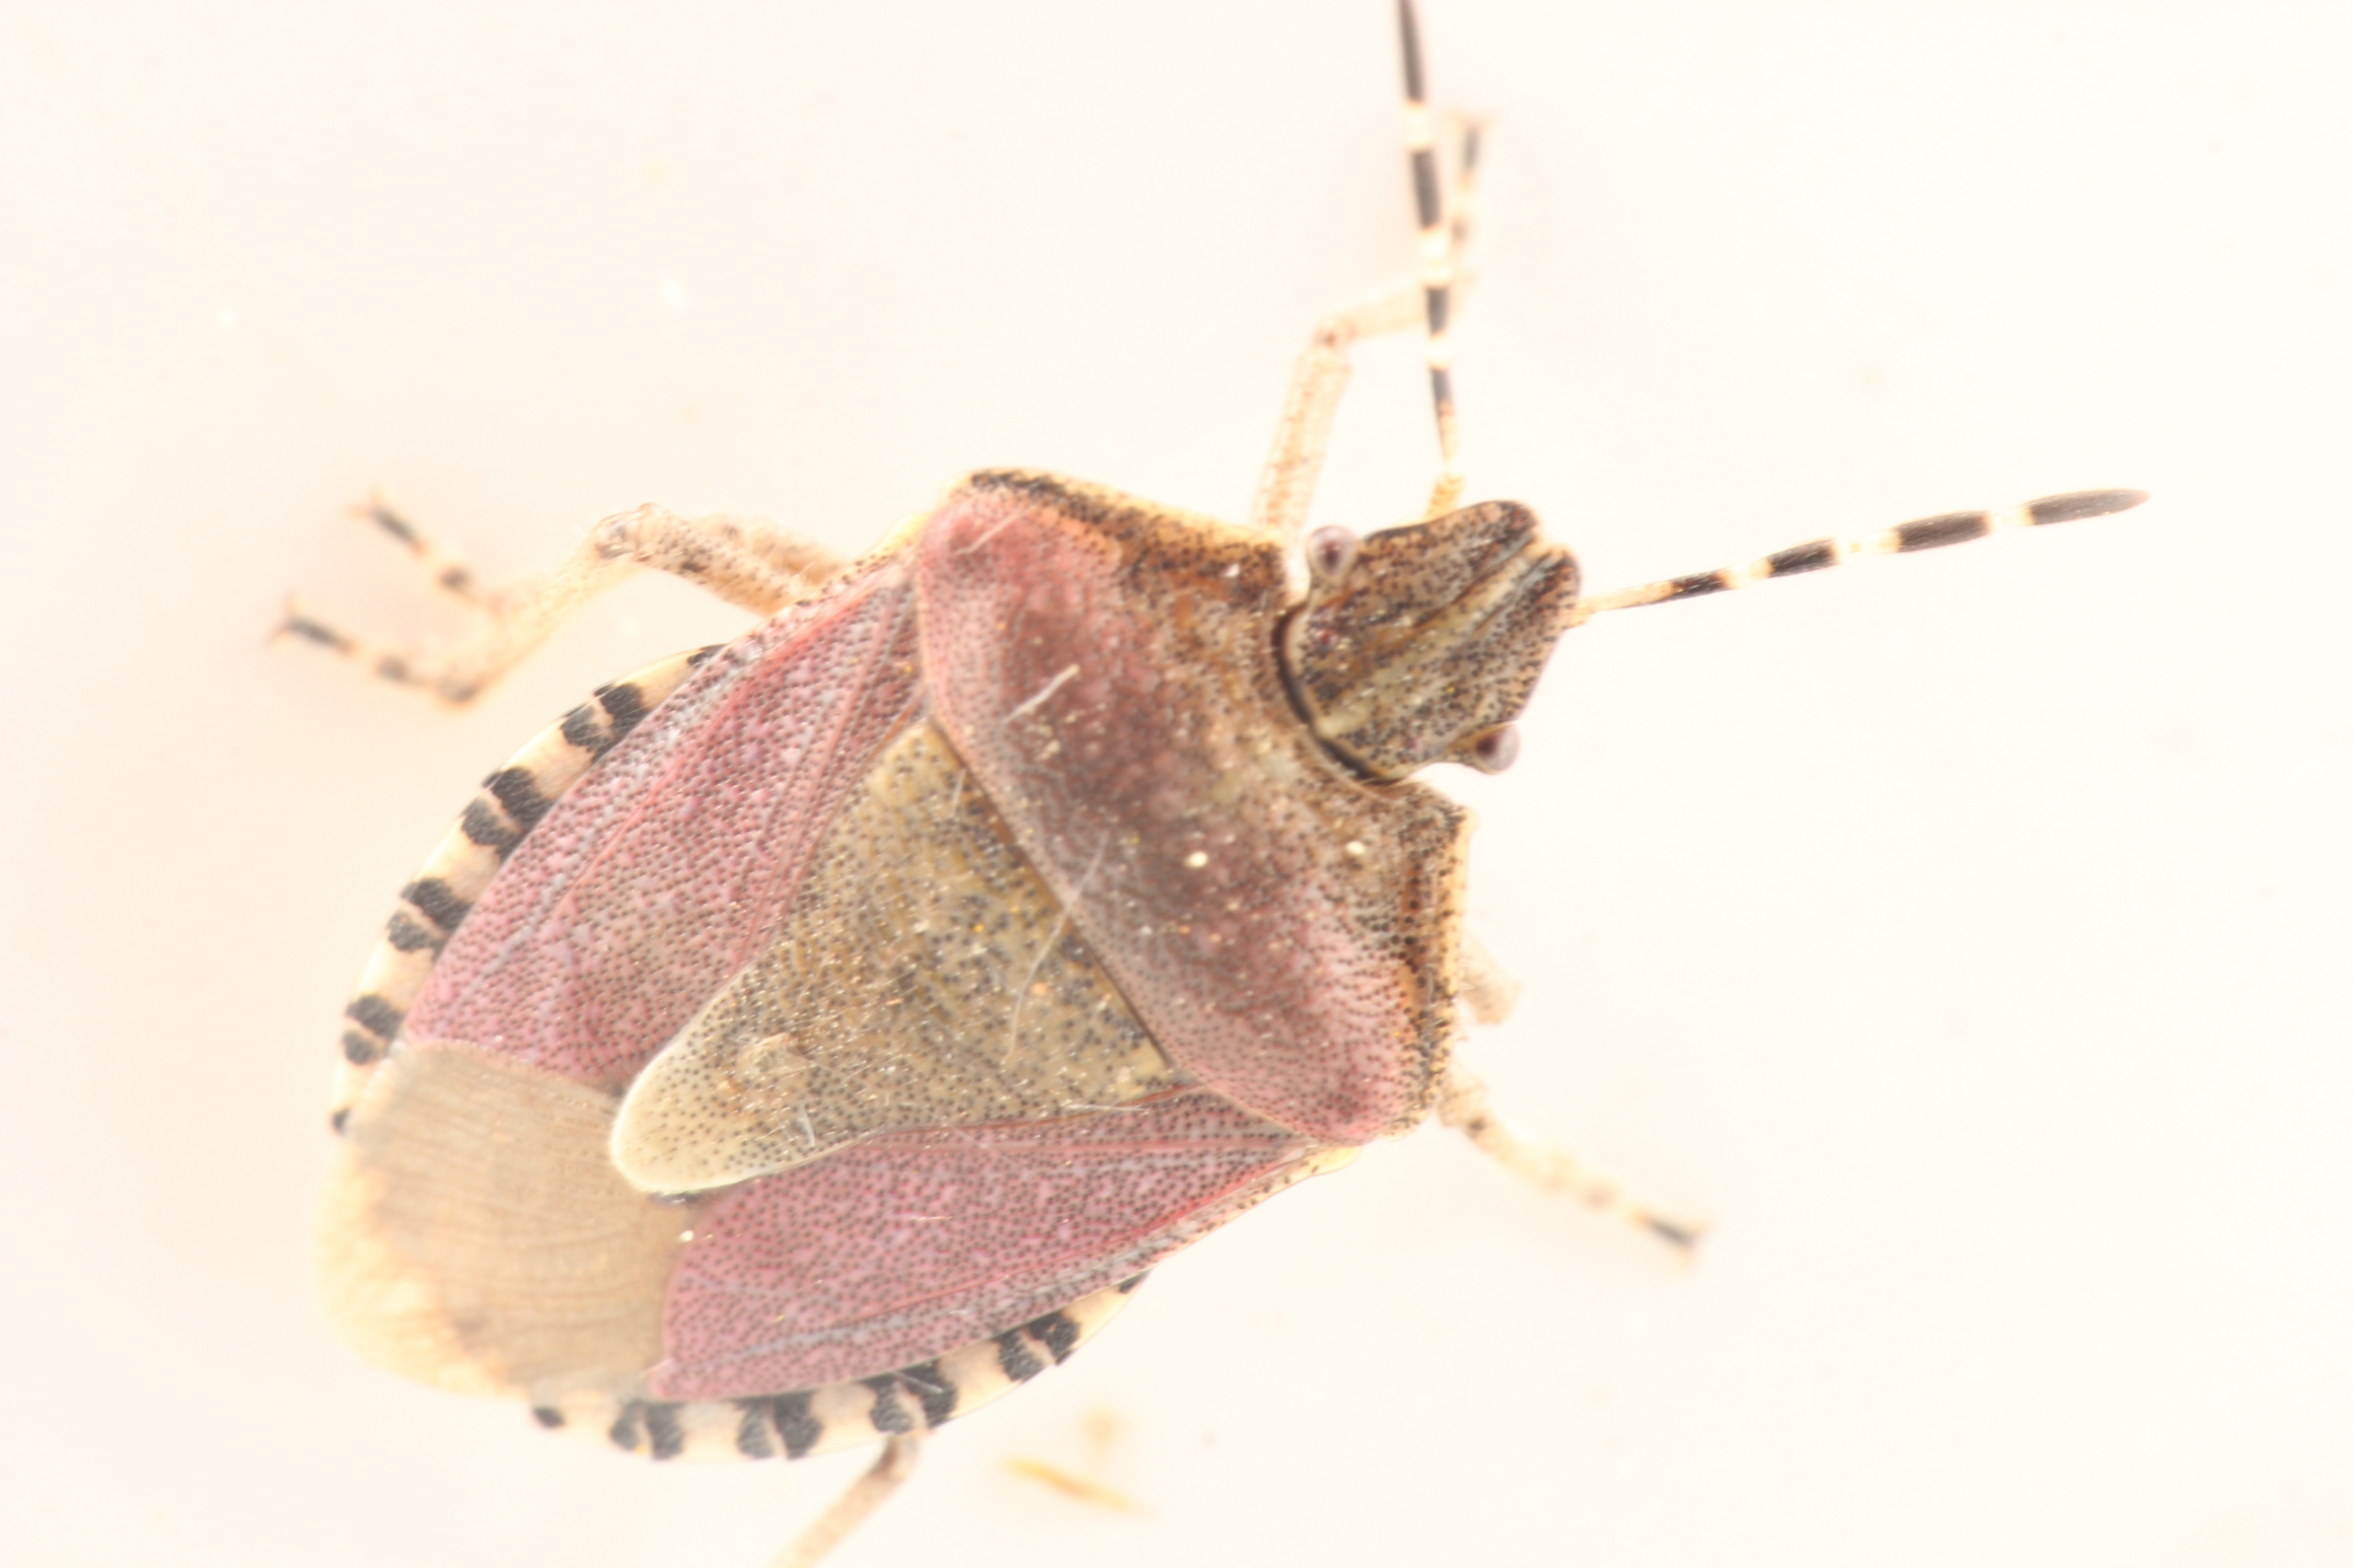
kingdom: Animalia
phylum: Arthropoda
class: Insecta
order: Hemiptera
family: Pentatomidae
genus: Dolycoris
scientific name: Dolycoris baccarum
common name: Almindelig bærtæge
